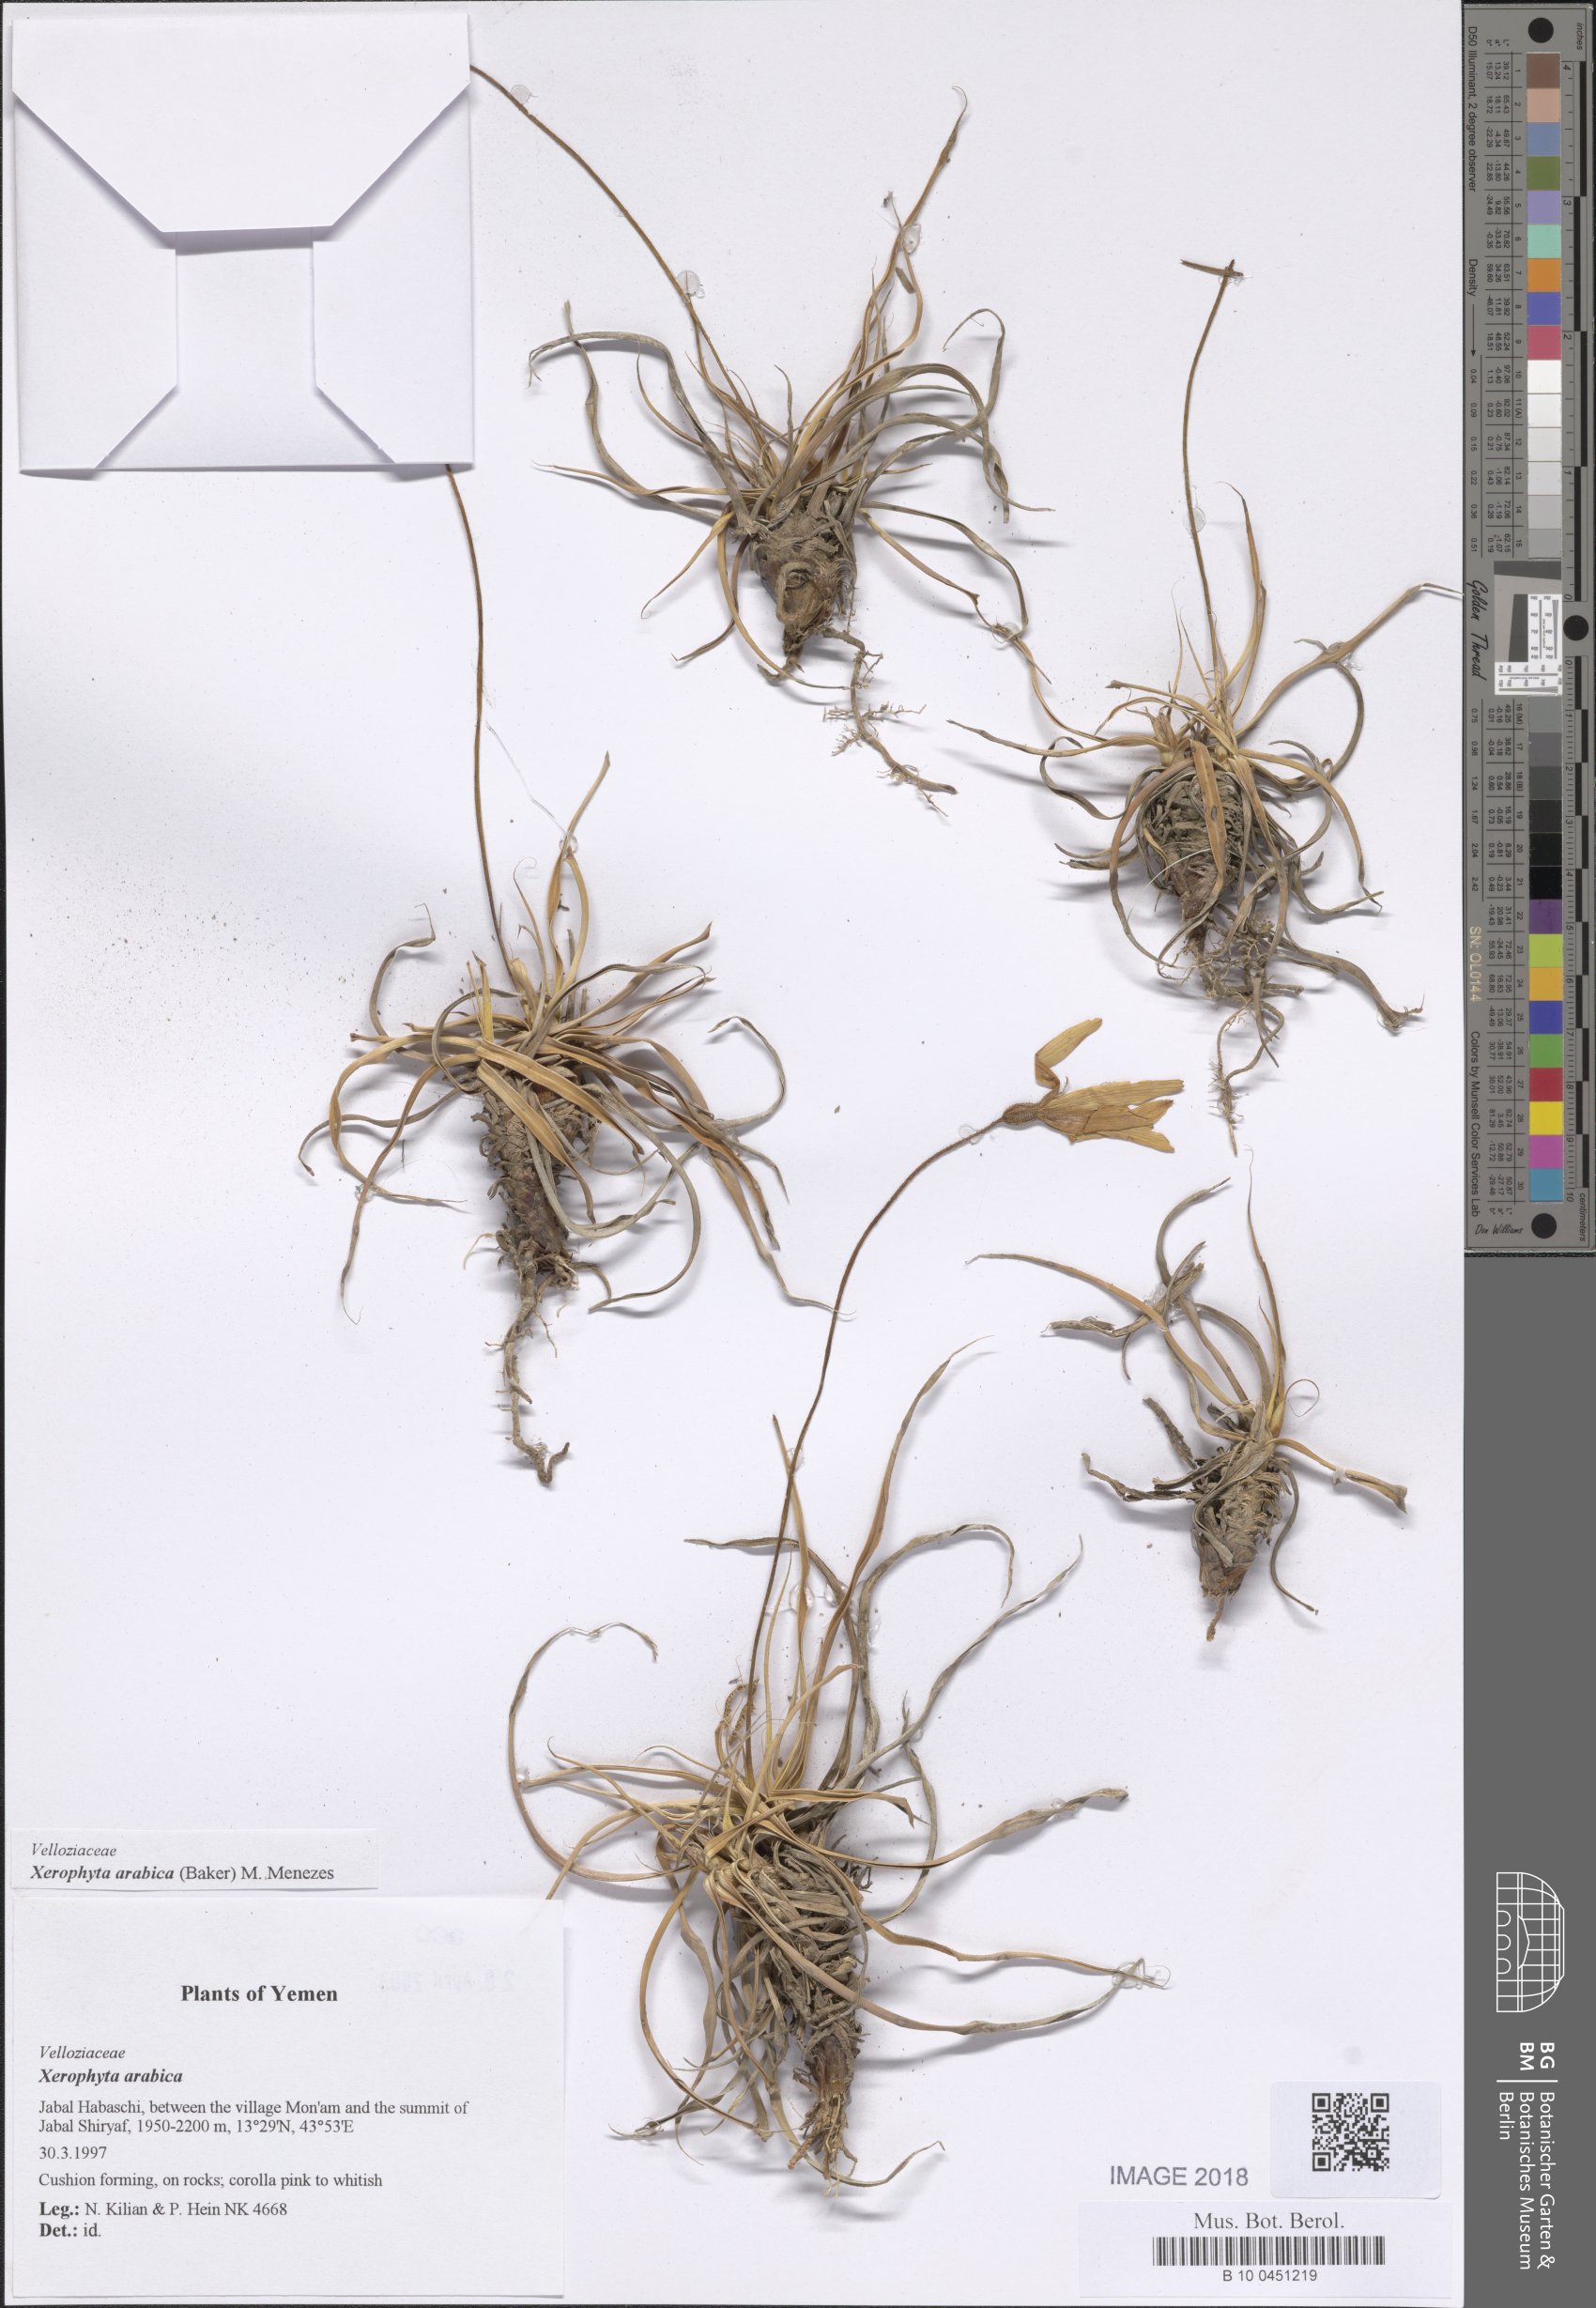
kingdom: Plantae
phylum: Tracheophyta
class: Liliopsida
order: Pandanales
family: Velloziaceae
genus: Xerophyta
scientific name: Xerophyta arabica
